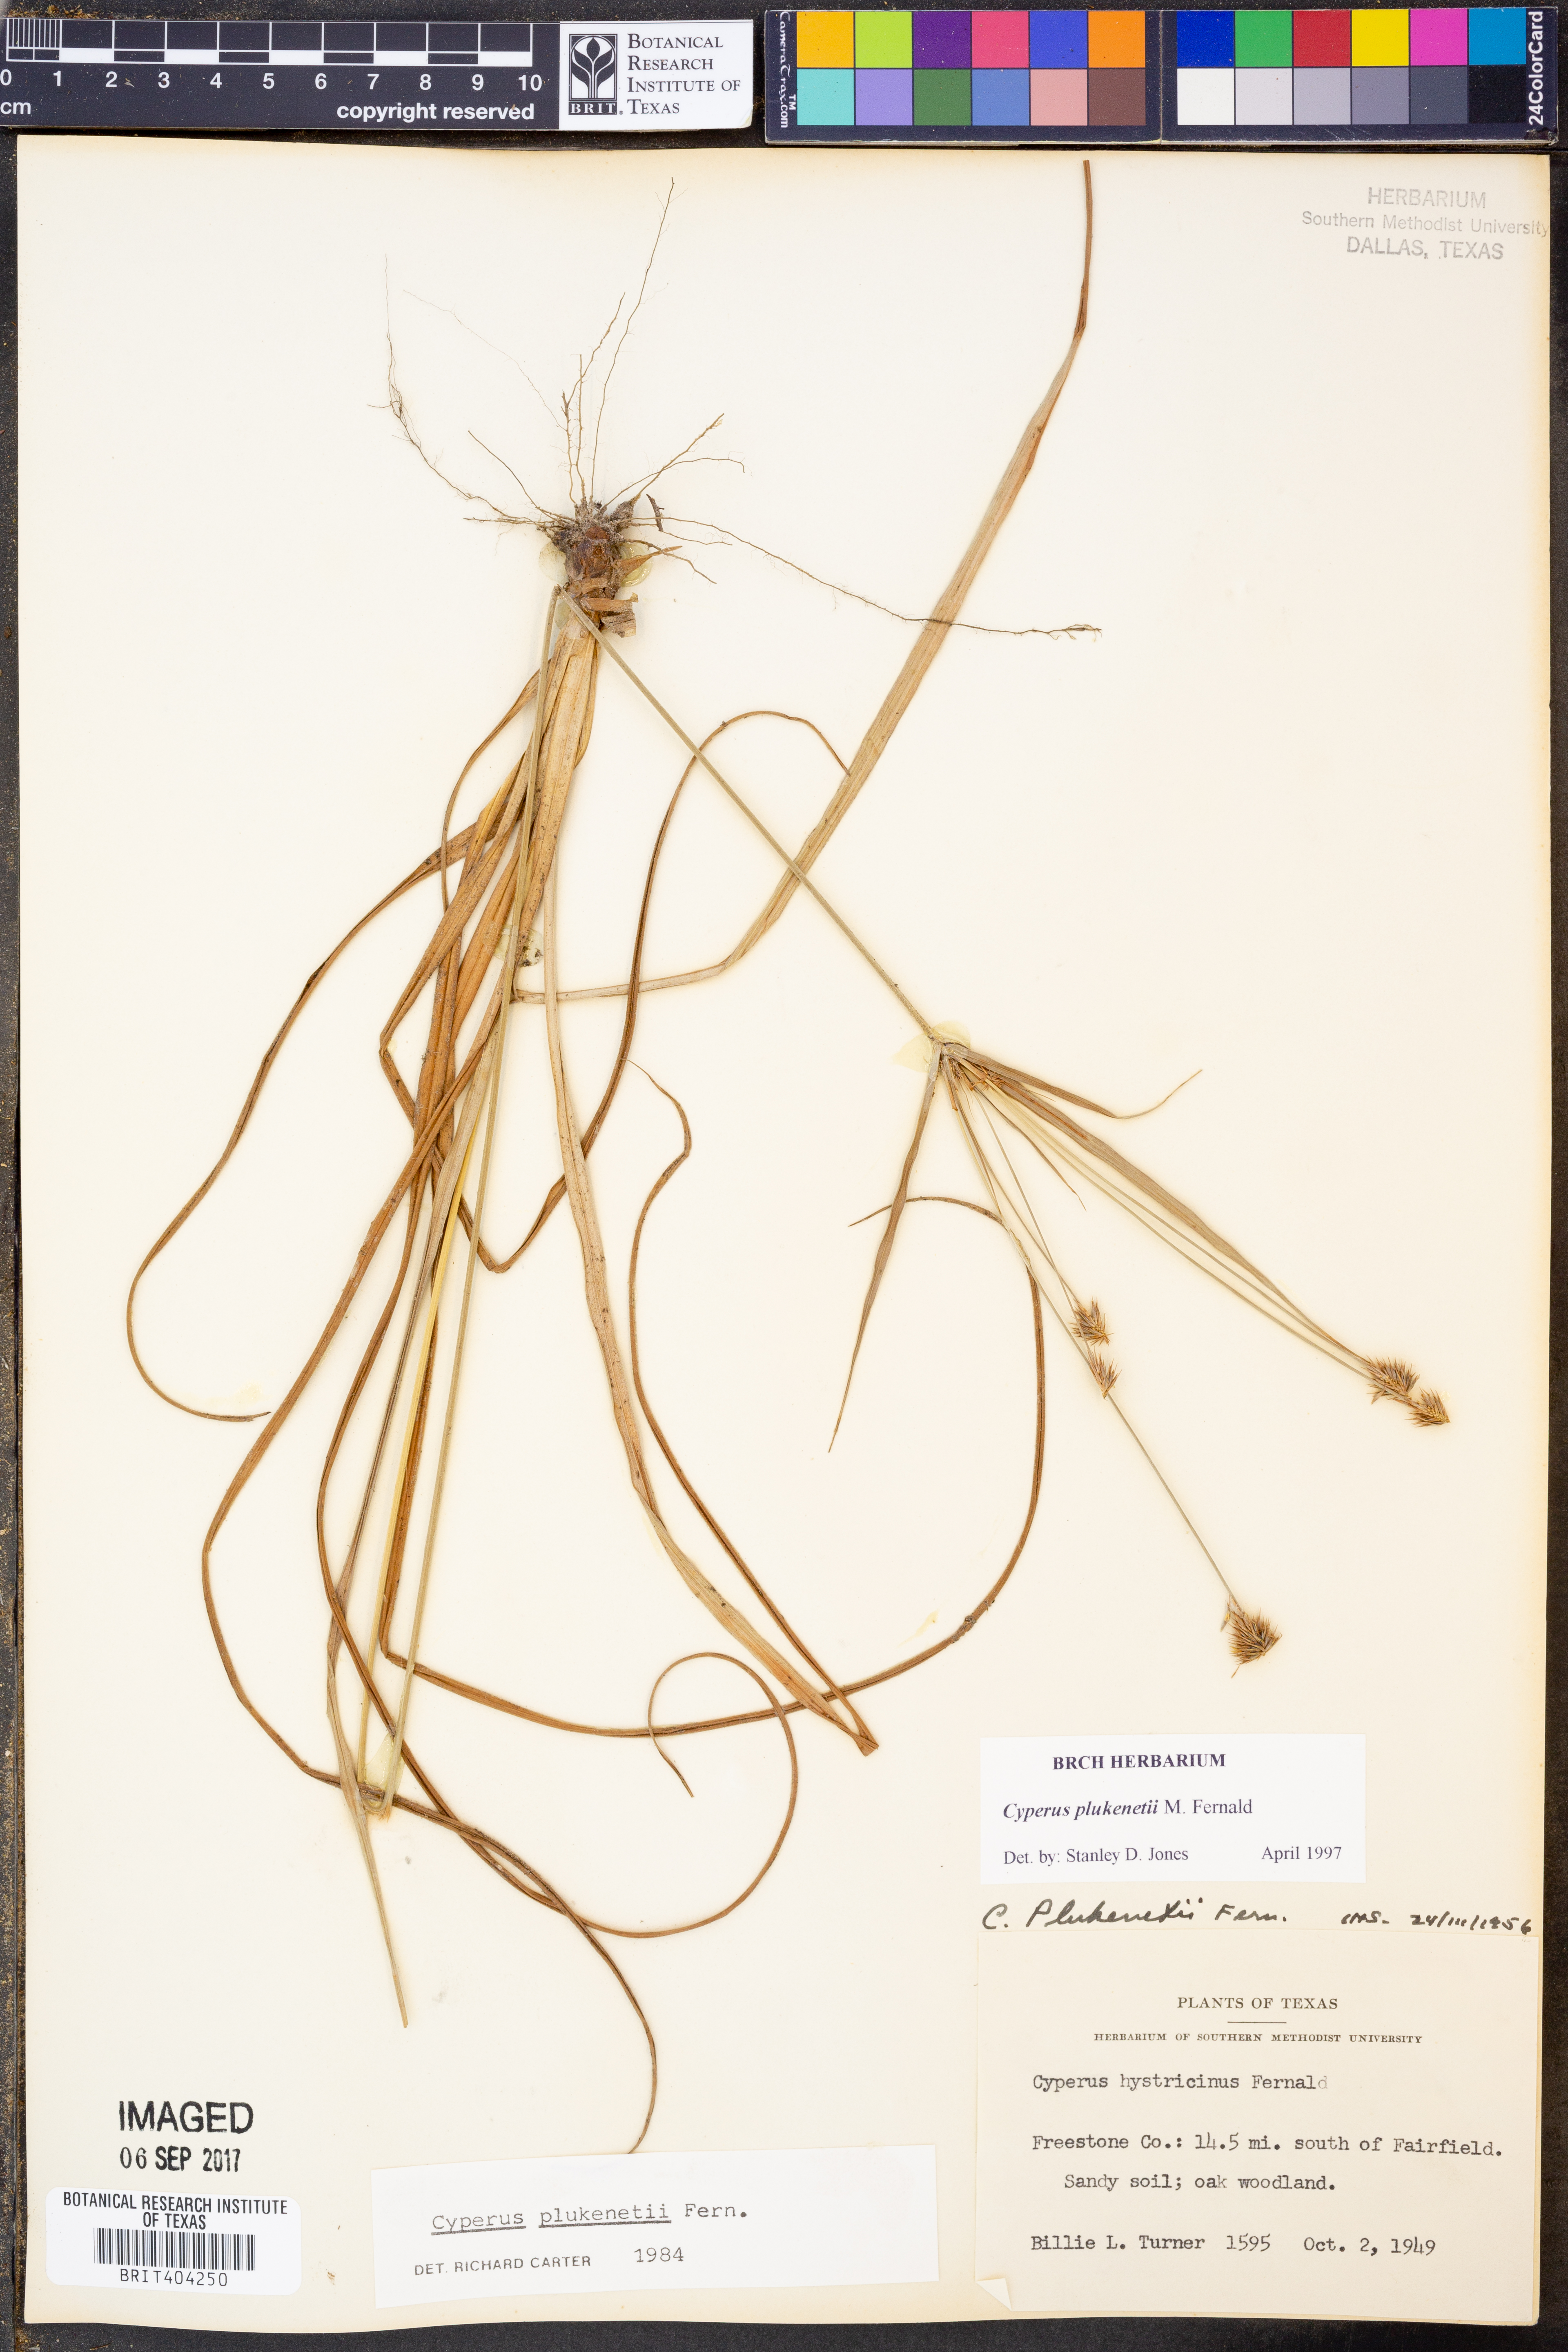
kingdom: Plantae
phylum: Tracheophyta
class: Liliopsida
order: Poales
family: Cyperaceae
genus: Cyperus
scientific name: Cyperus plukenetii
